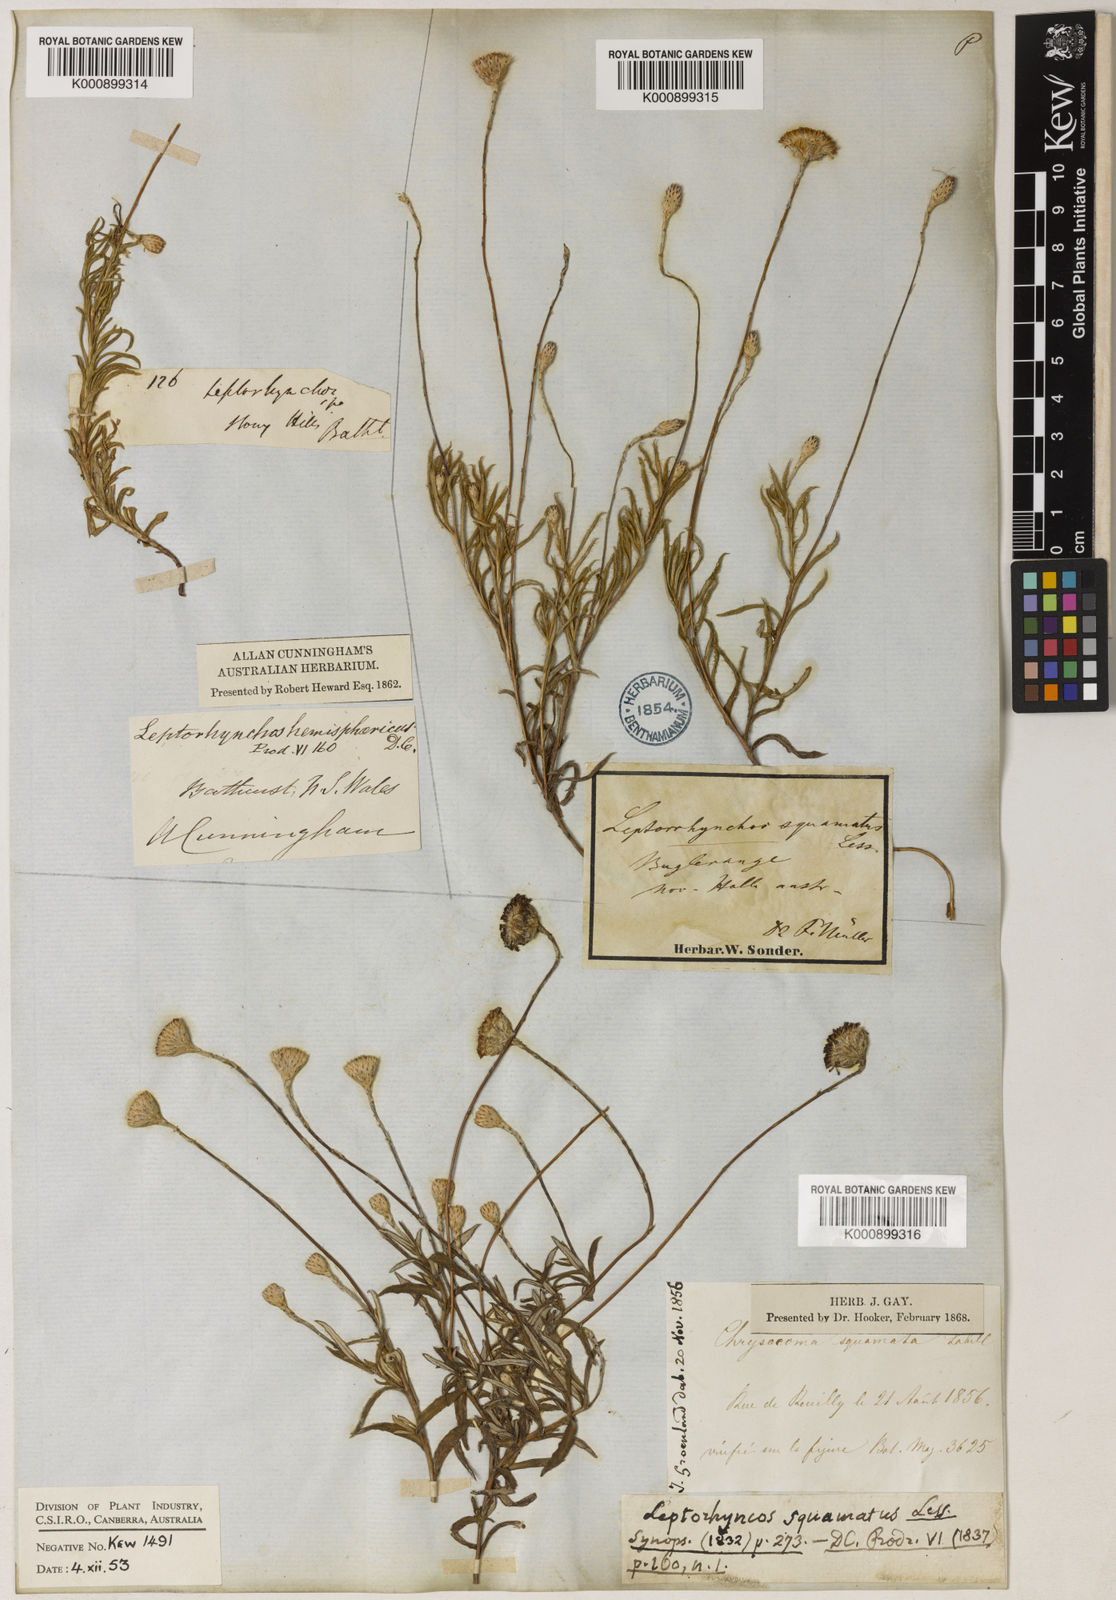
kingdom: Plantae
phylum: Tracheophyta
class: Magnoliopsida
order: Asterales
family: Asteraceae
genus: Leptorhynchos
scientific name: Leptorhynchos squamatus
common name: Scaly-buttons
